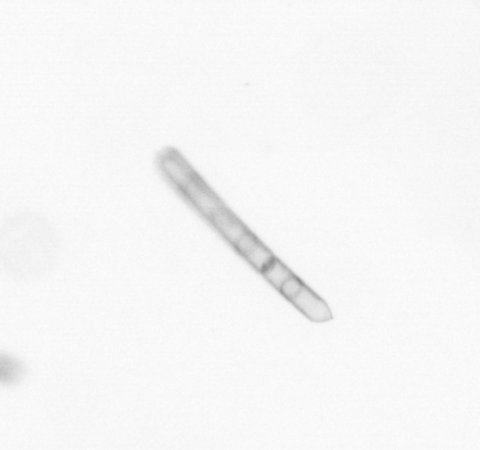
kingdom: Chromista
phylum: Ochrophyta
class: Bacillariophyceae
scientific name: Bacillariophyceae
